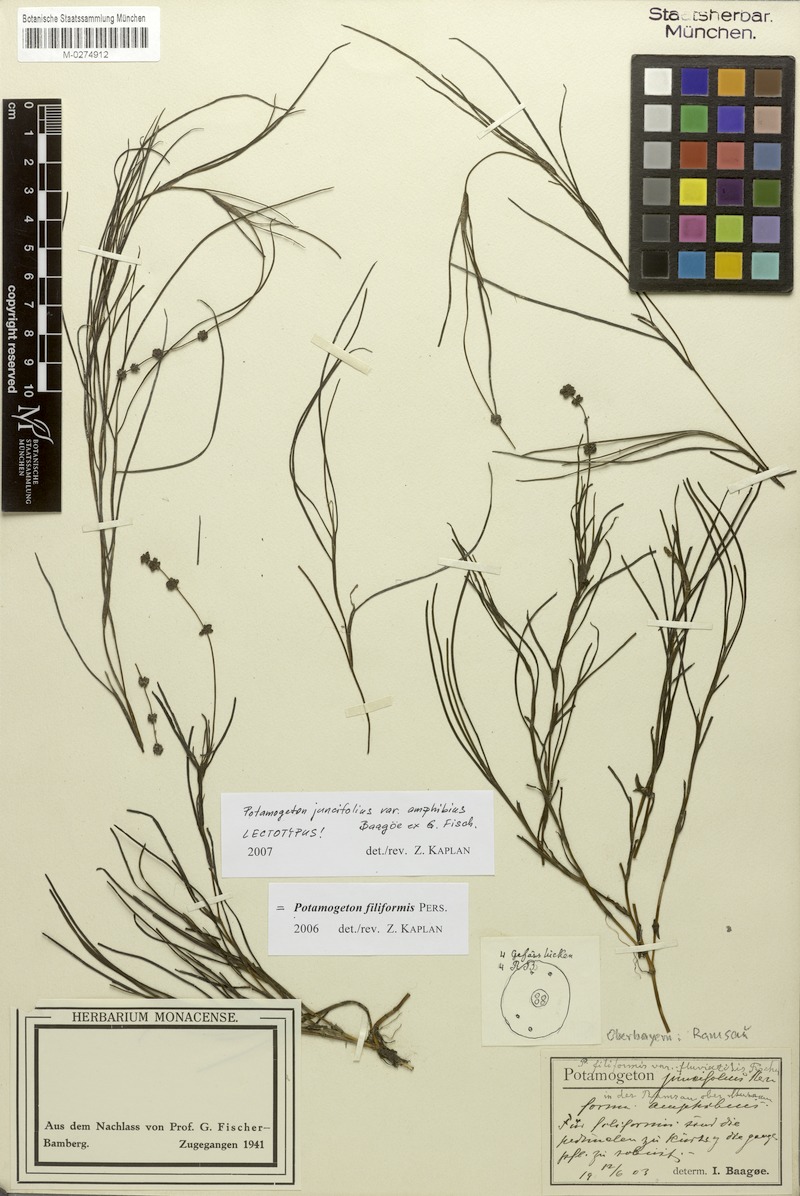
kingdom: Plantae
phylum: Tracheophyta
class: Liliopsida
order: Alismatales
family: Potamogetonaceae
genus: Stuckenia
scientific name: Stuckenia filiformis
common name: Alpine thread-leaved pondweed
